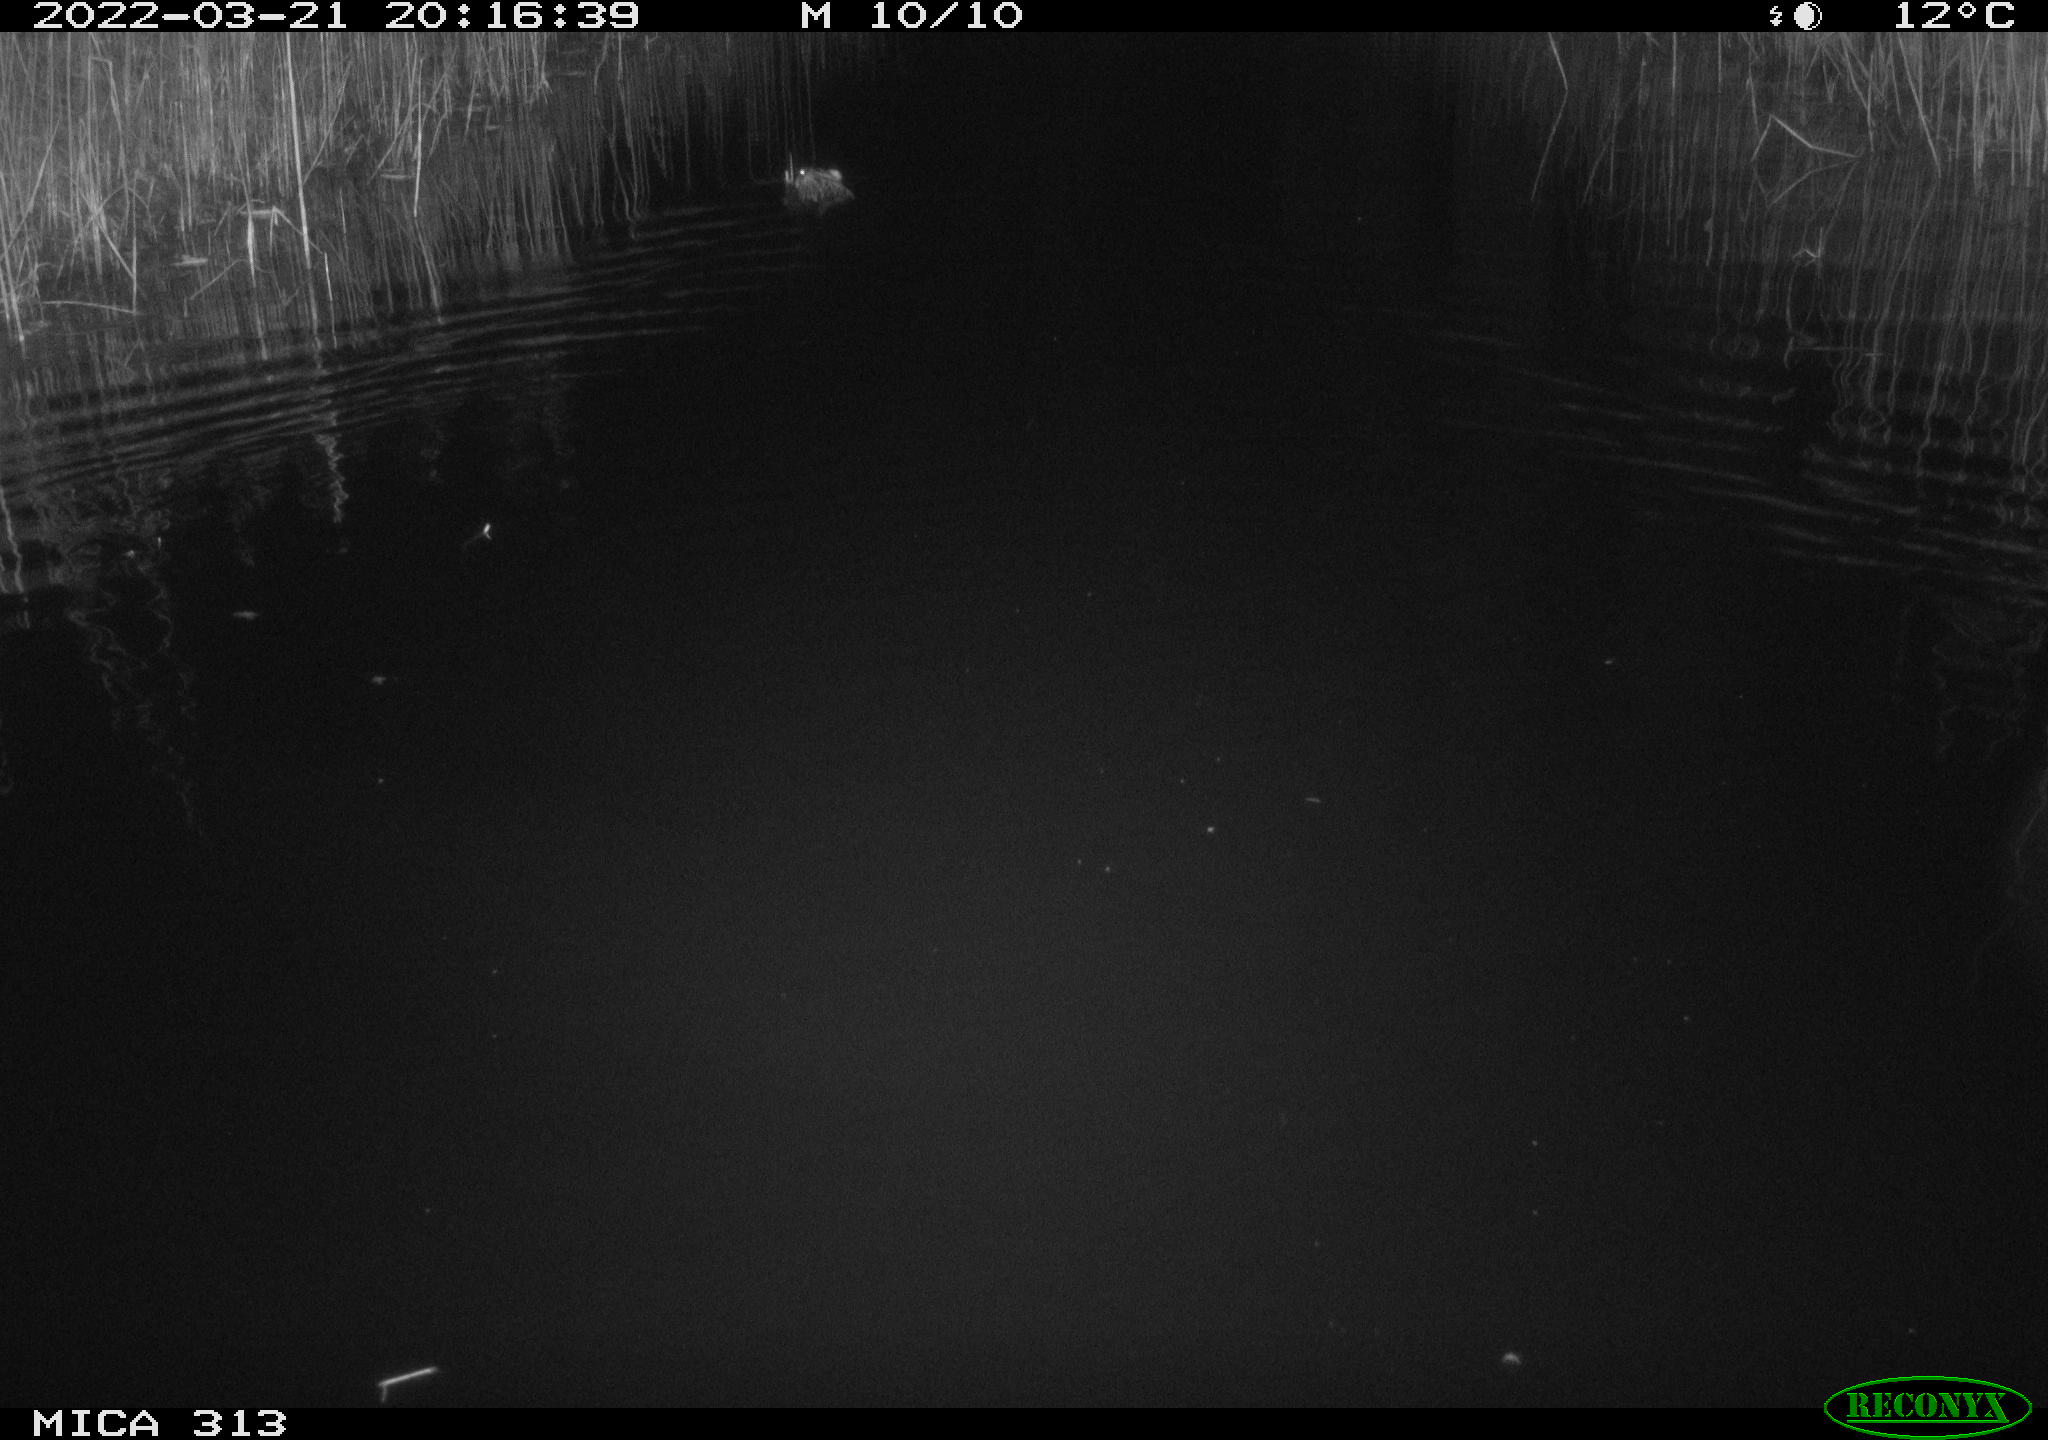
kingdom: Animalia
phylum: Chordata
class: Mammalia
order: Rodentia
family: Cricetidae
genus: Ondatra
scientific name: Ondatra zibethicus
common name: Muskrat
